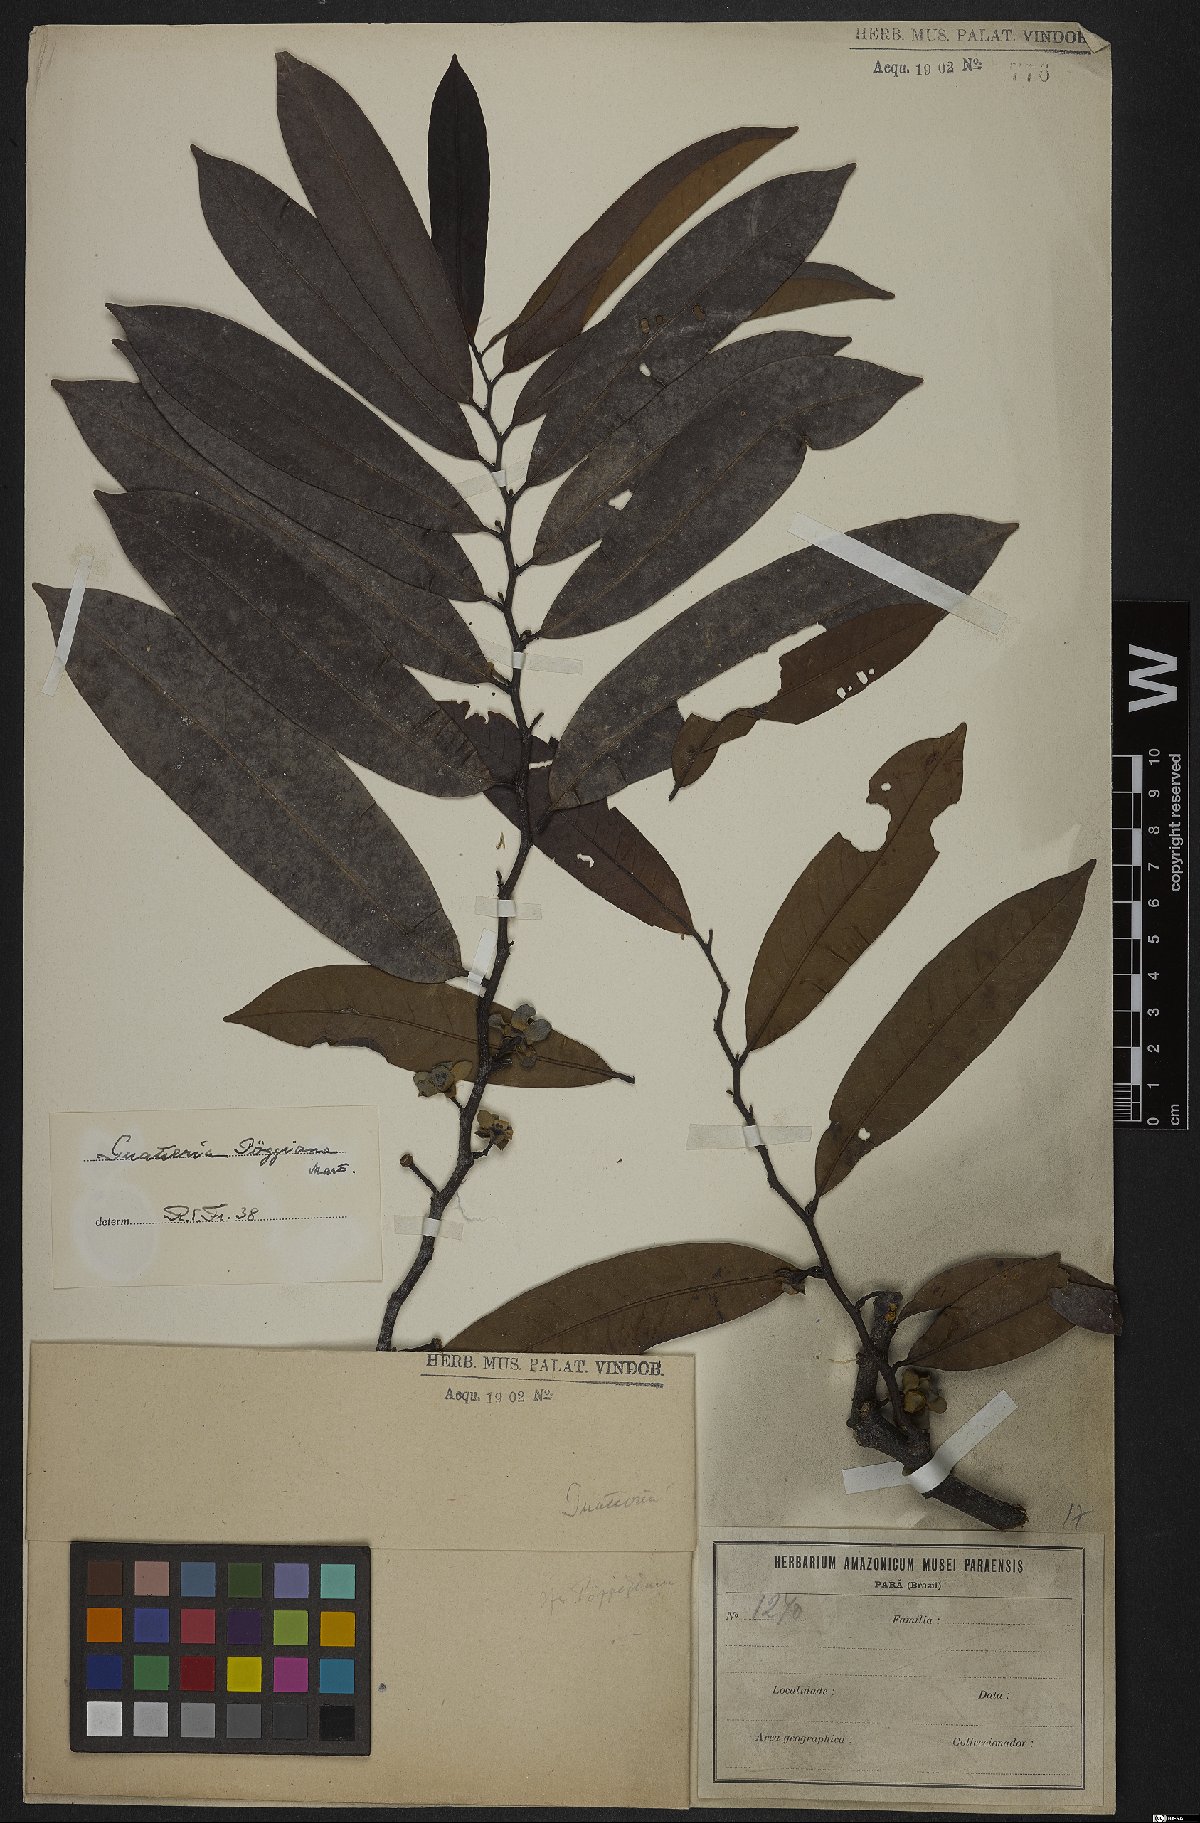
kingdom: Plantae
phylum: Tracheophyta
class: Magnoliopsida
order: Magnoliales
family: Annonaceae
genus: Guatteria
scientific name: Guatteria poeppigiana
